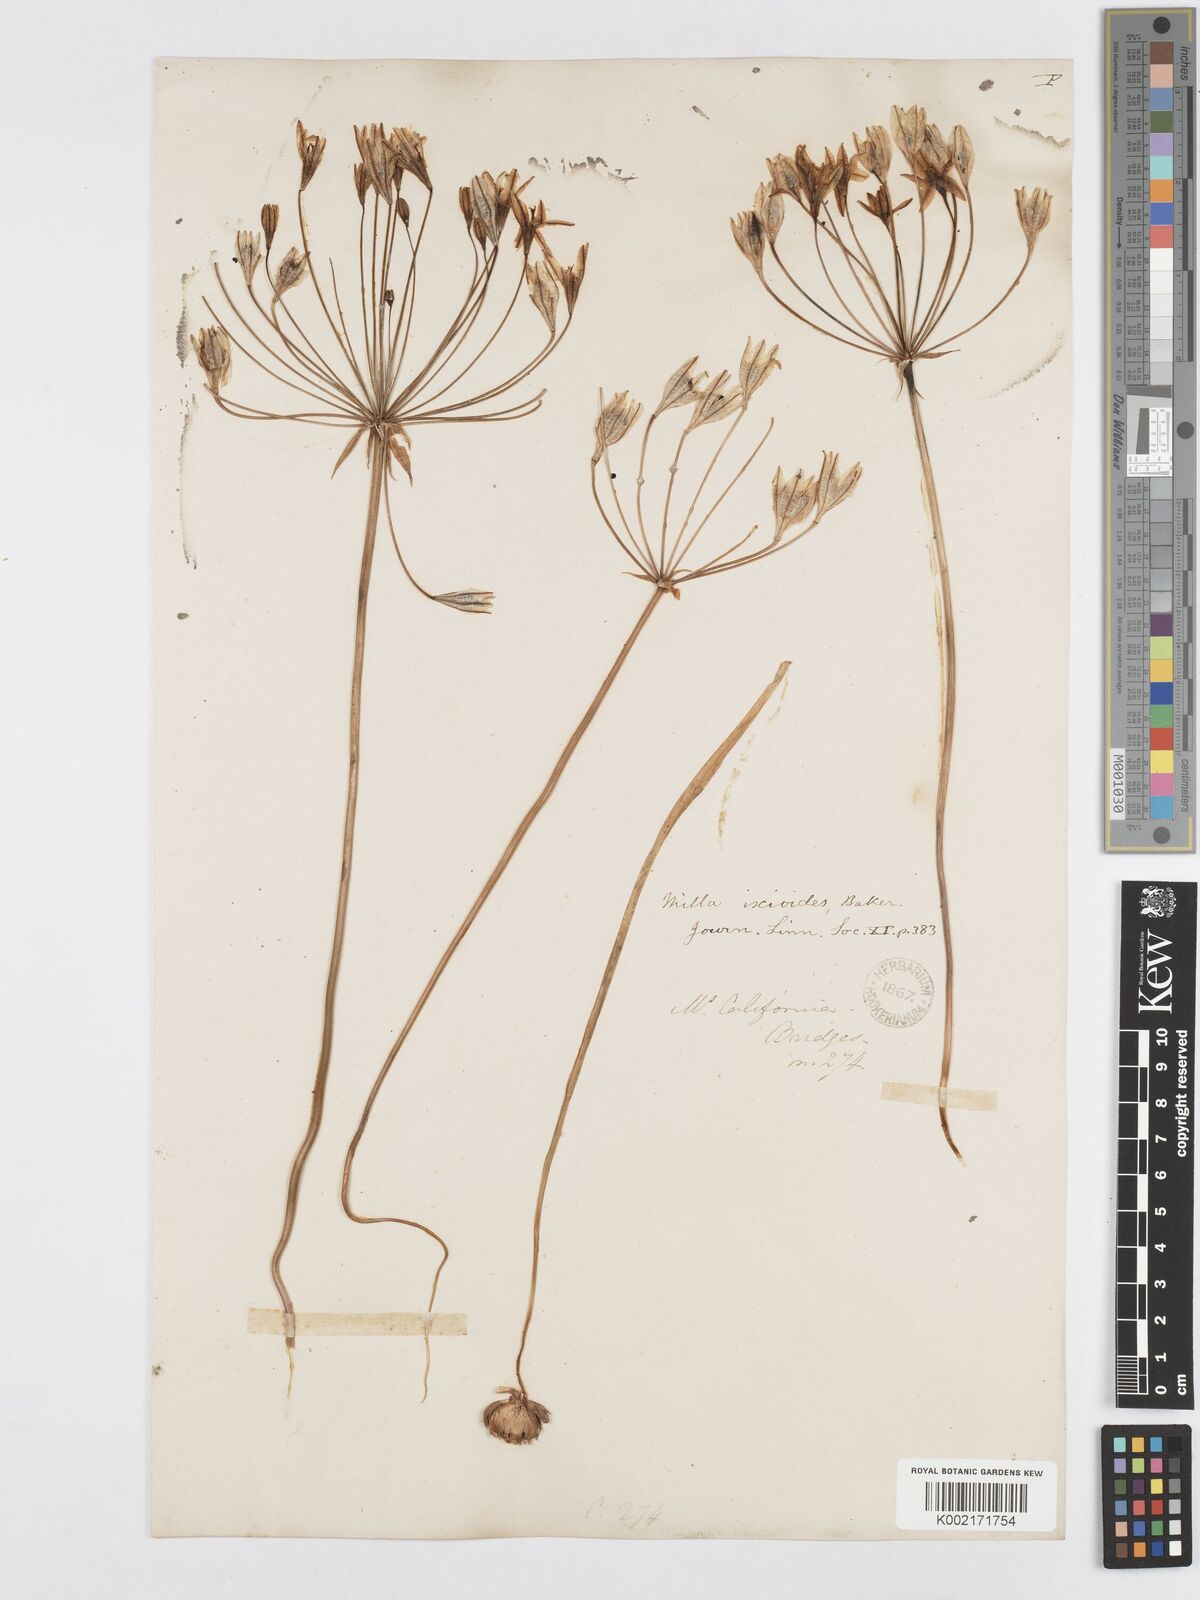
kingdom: Plantae
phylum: Tracheophyta
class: Liliopsida
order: Asparagales
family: Asparagaceae
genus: Triteleia
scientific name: Triteleia ixioides
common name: Yellow-brodiaea
